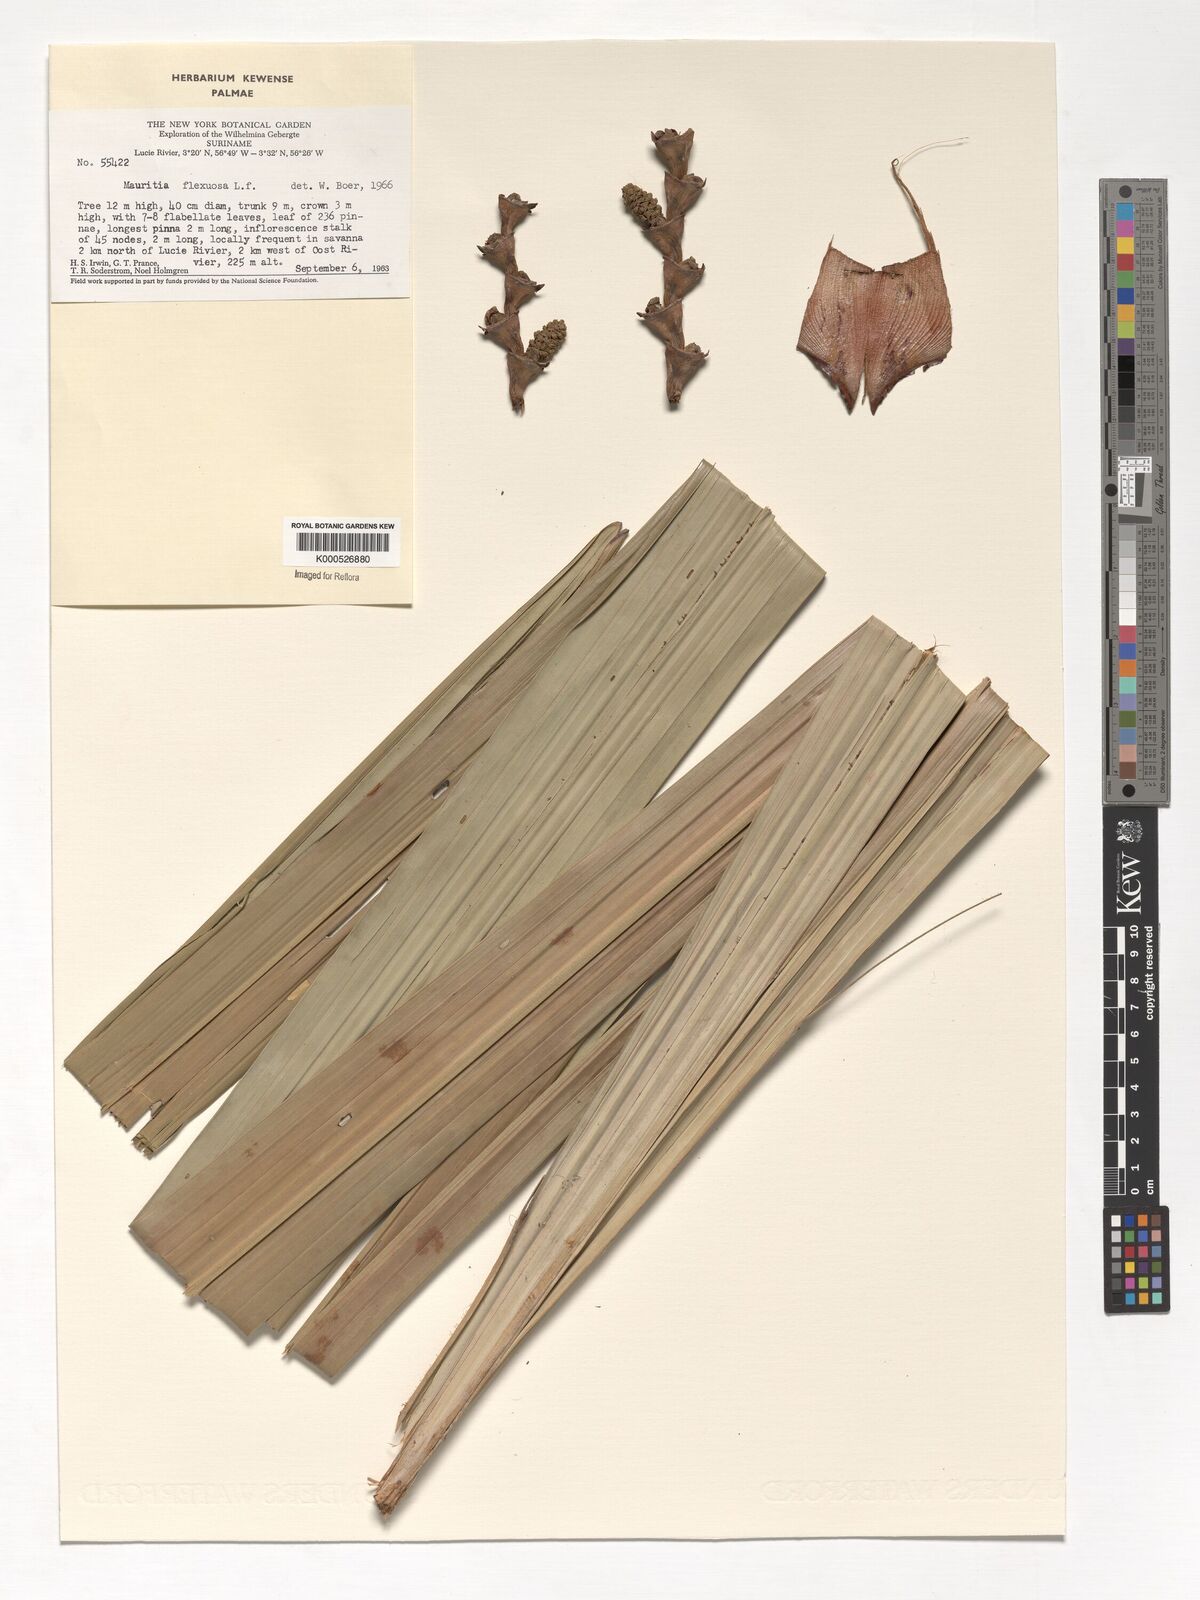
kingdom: Plantae
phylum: Tracheophyta
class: Liliopsida
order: Arecales
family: Arecaceae
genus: Mauritia
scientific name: Mauritia flexuosa
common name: Tree-of-life
